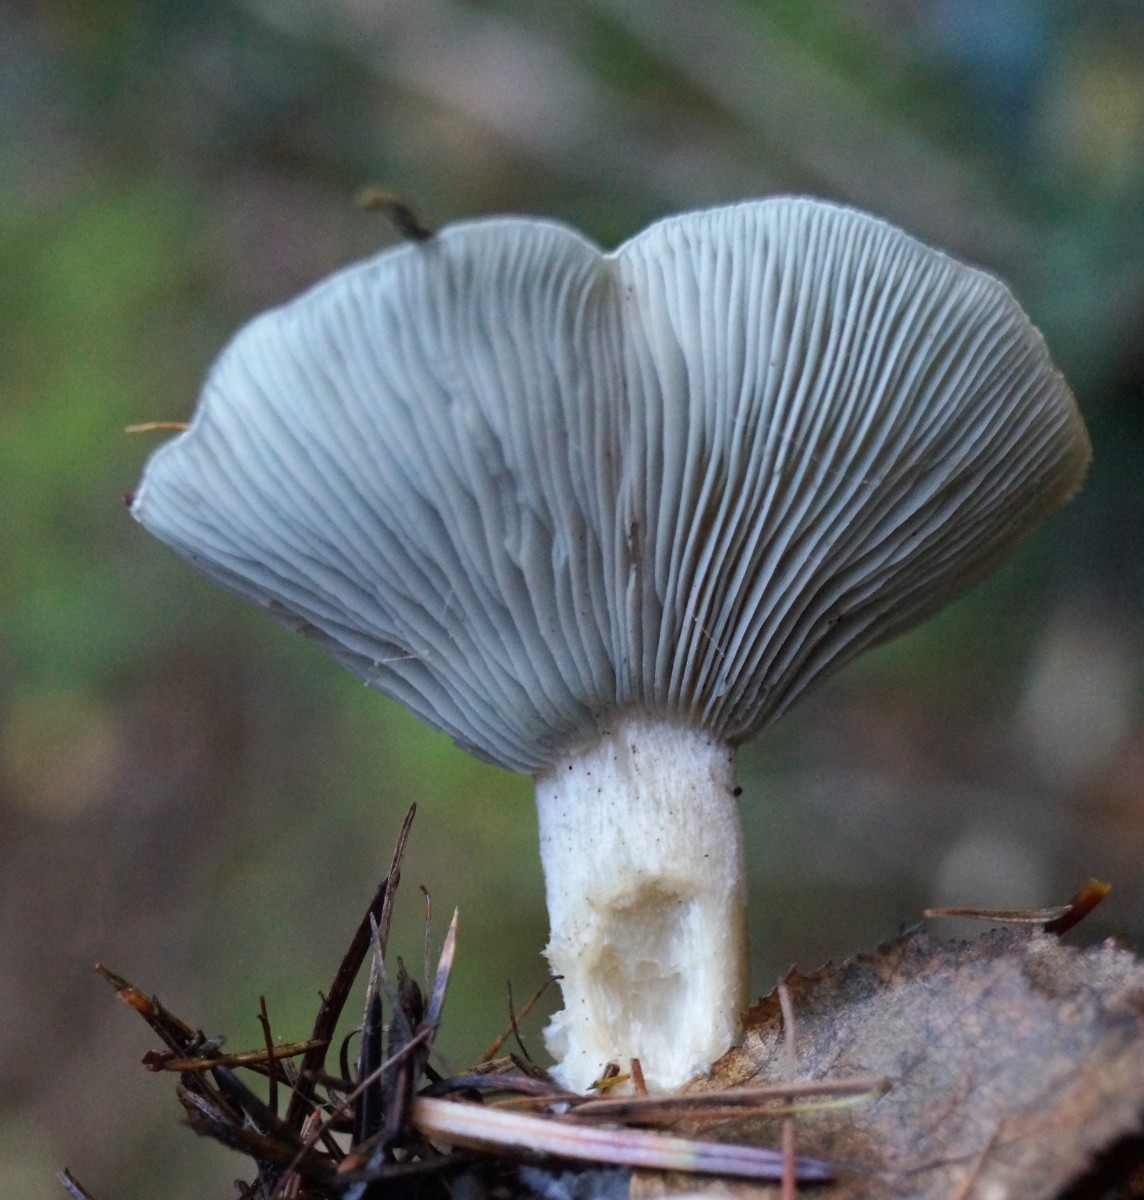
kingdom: Fungi
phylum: Basidiomycota
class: Agaricomycetes
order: Agaricales
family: Tricholomataceae
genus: Clitocybe
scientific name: Clitocybe odora
